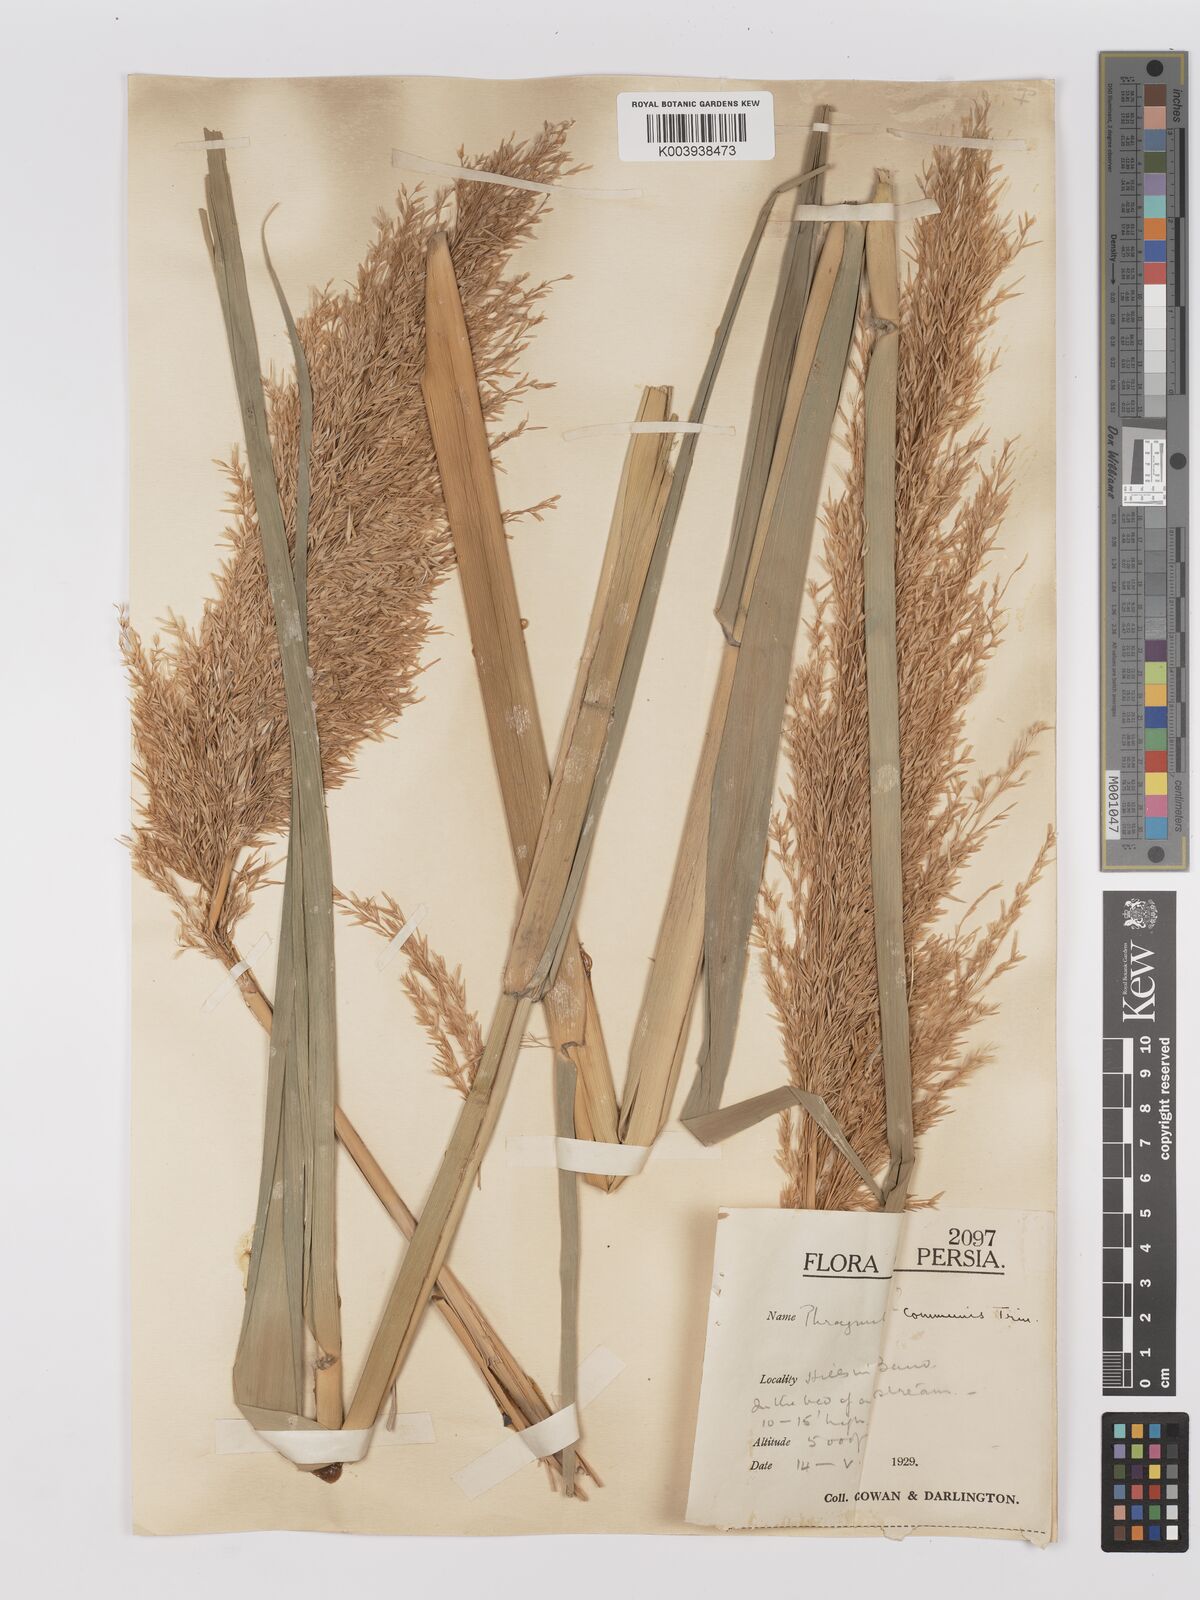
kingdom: Plantae
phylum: Tracheophyta
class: Liliopsida
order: Poales
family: Poaceae
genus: Phragmites
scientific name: Phragmites australis
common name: Common reed
